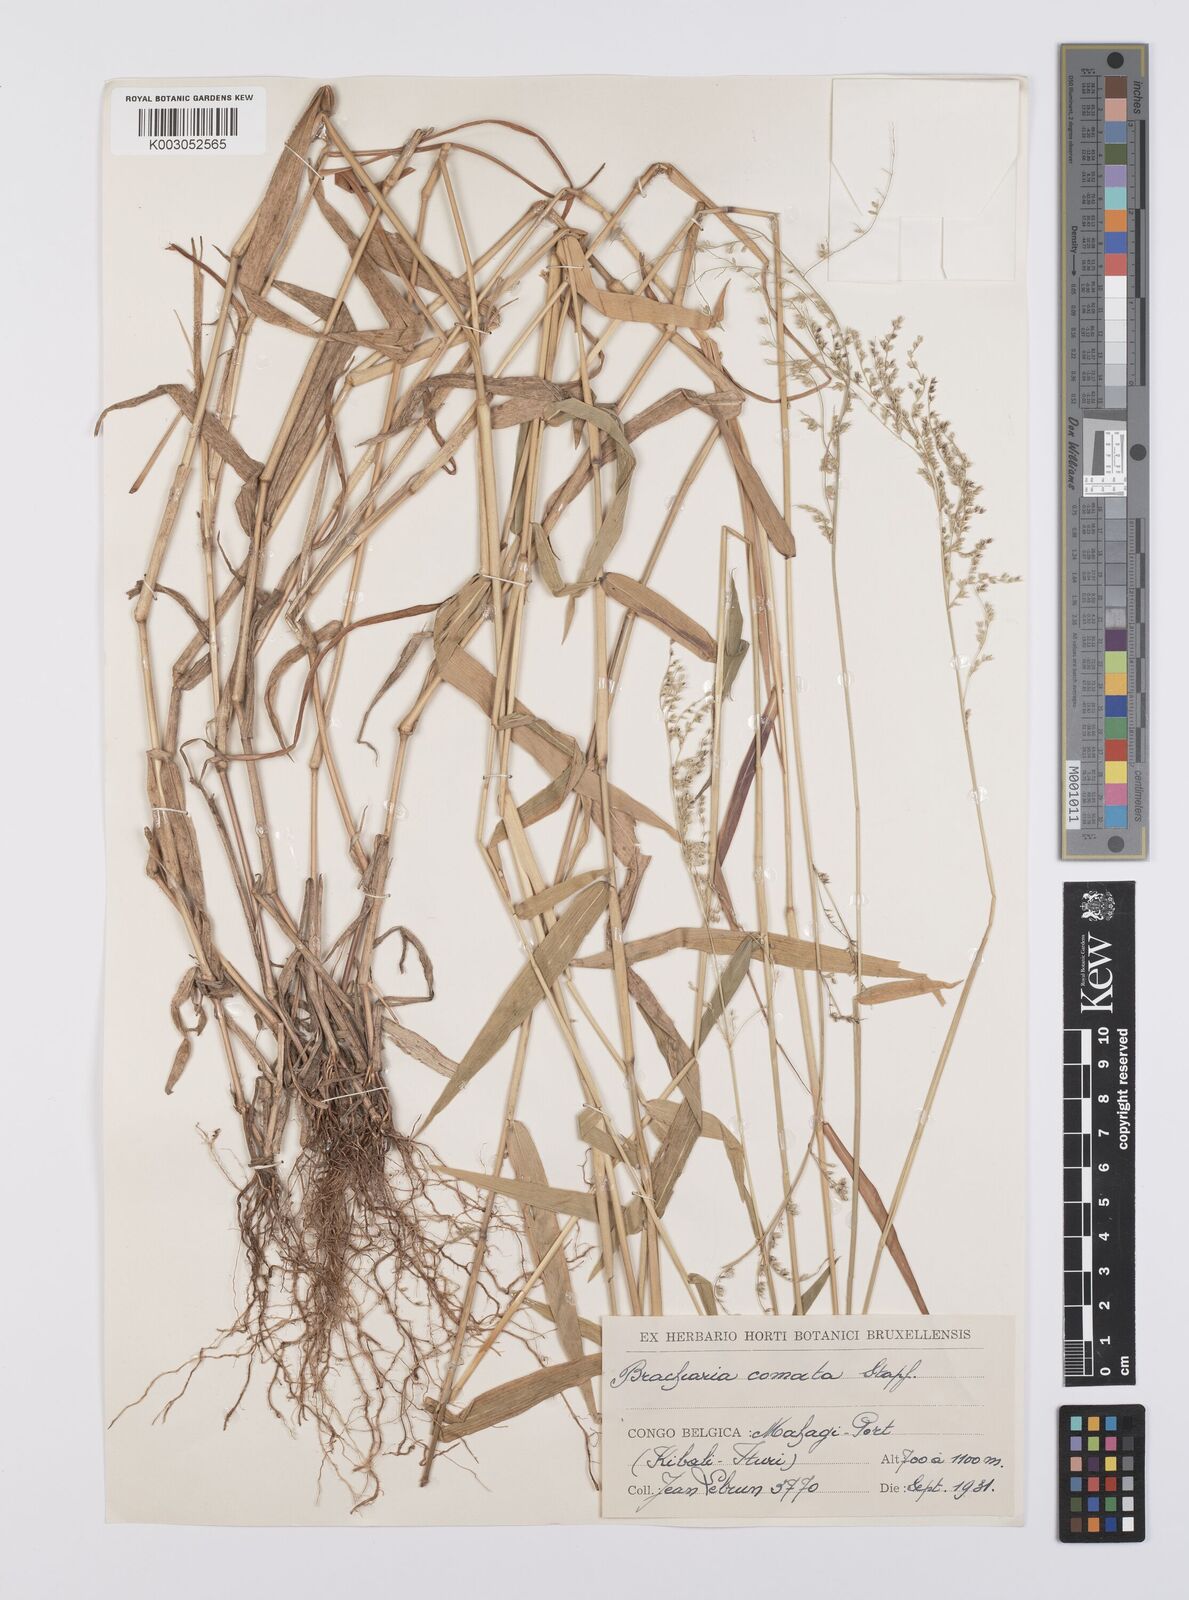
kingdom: Plantae
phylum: Tracheophyta
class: Liliopsida
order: Poales
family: Poaceae
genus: Urochloa
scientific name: Urochloa comata
